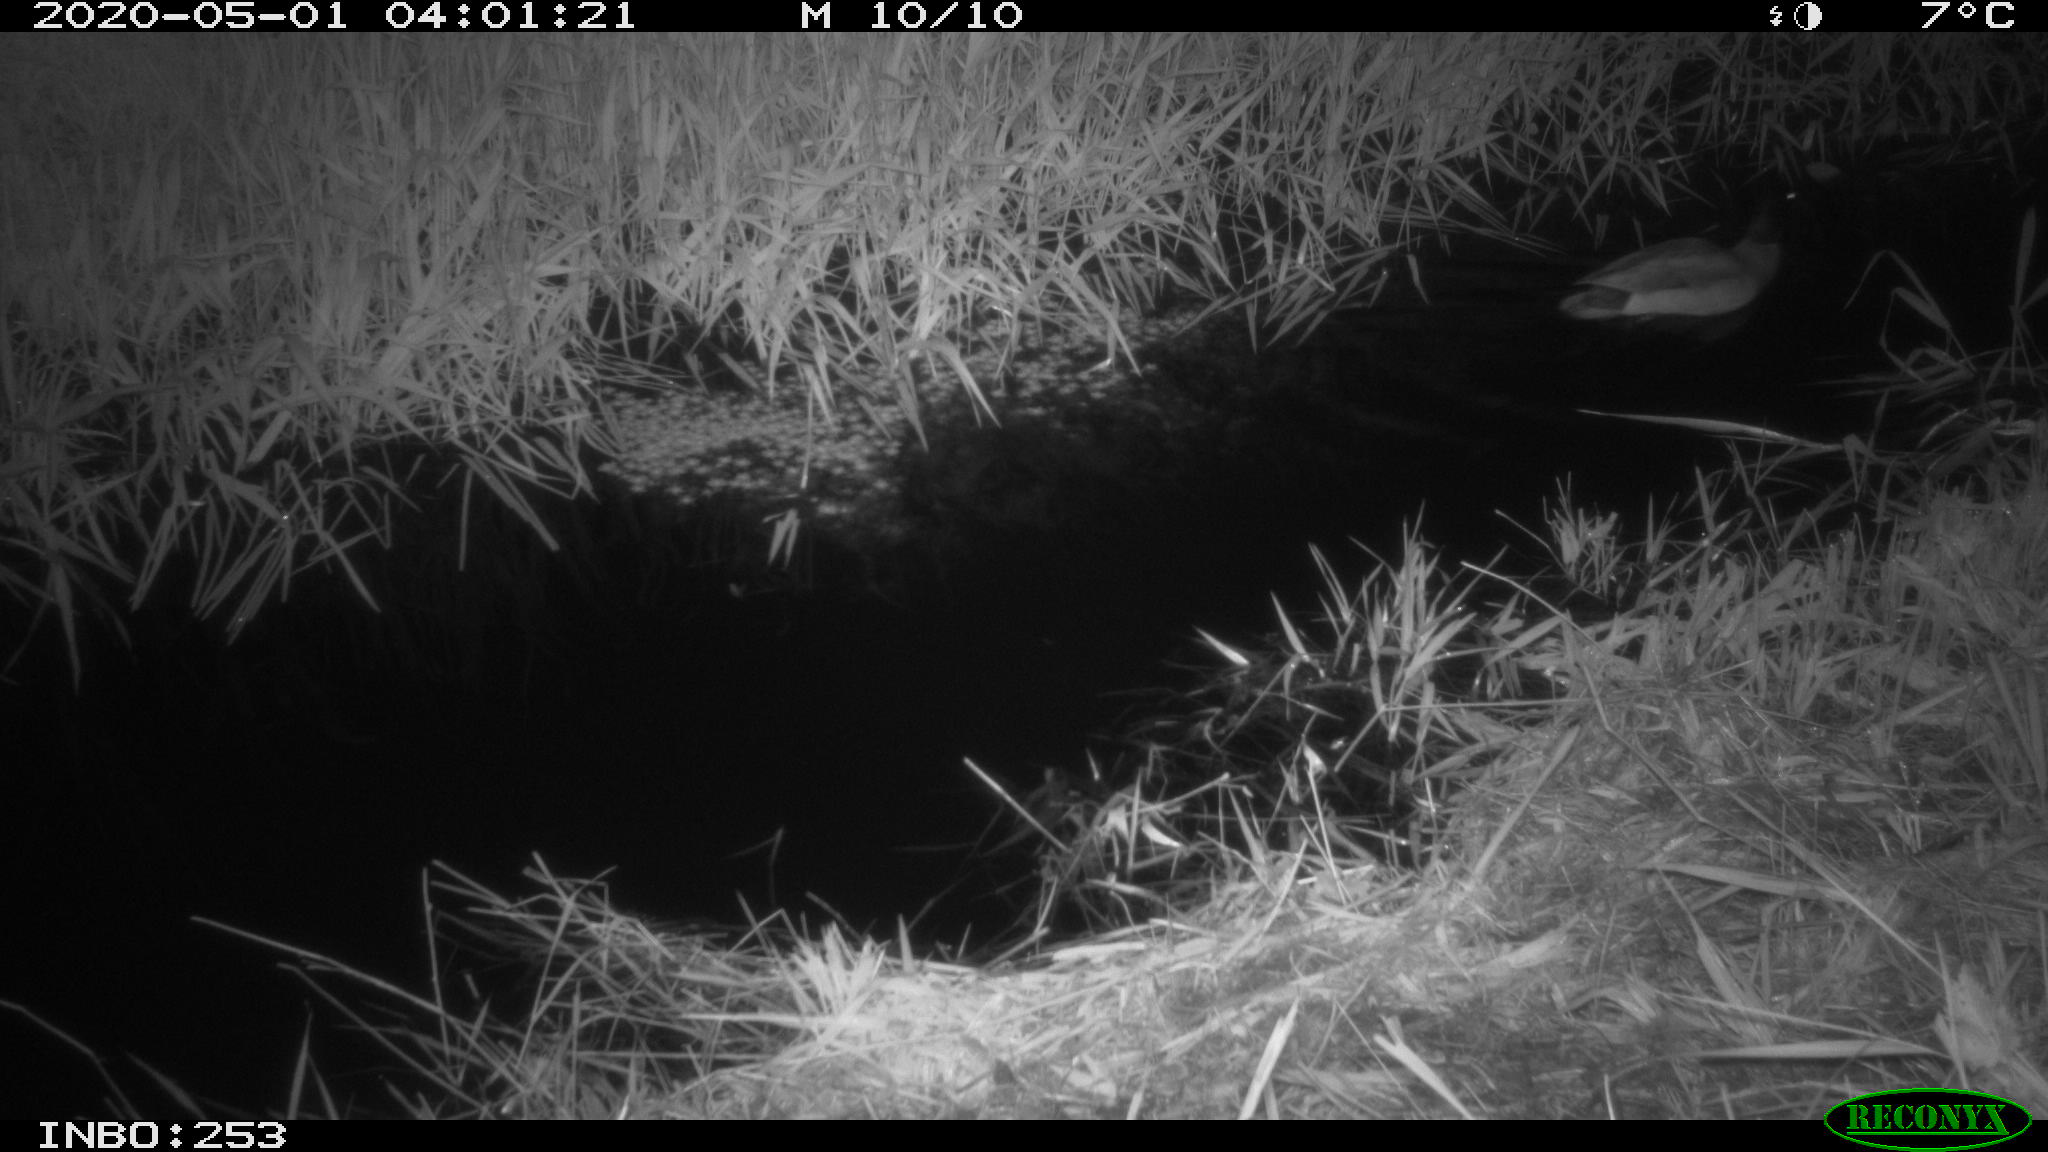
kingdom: Animalia
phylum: Chordata
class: Aves
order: Anseriformes
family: Anatidae
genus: Anas
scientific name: Anas platyrhynchos
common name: Mallard
